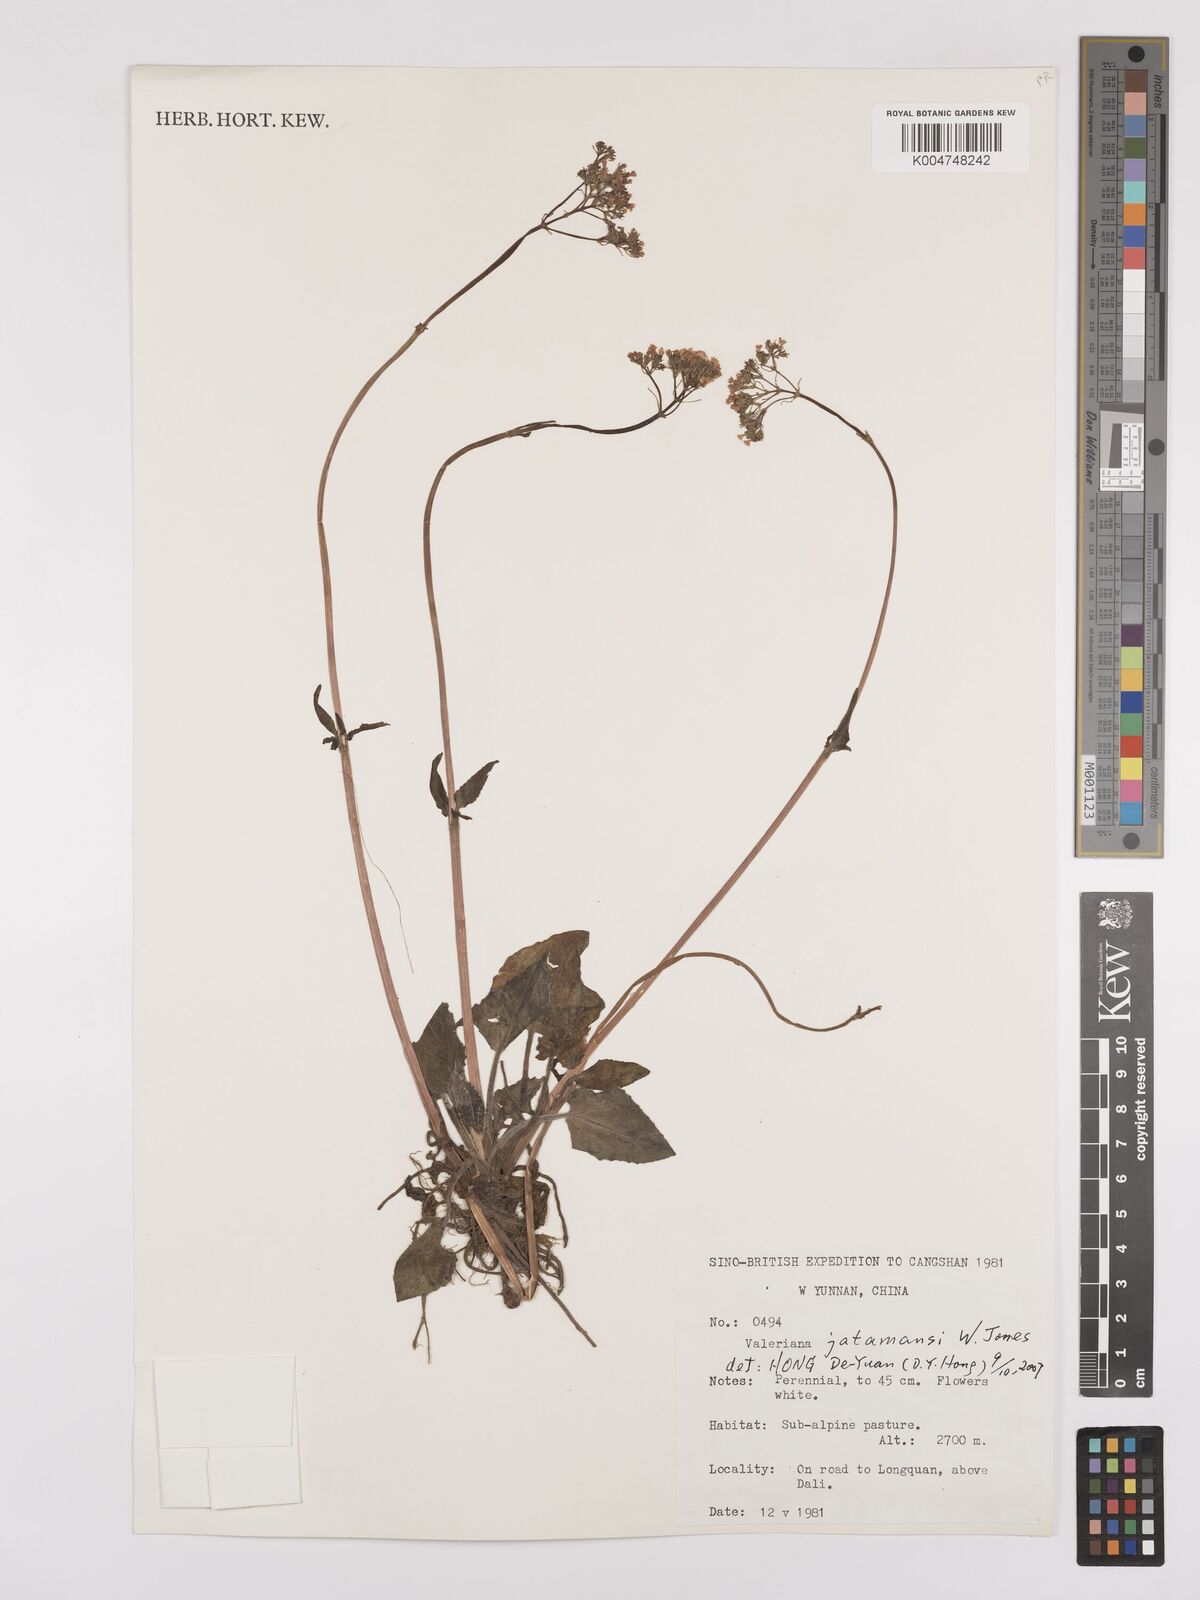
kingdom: Plantae
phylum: Tracheophyta
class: Magnoliopsida
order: Dipsacales
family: Caprifoliaceae
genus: Valeriana
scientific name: Valeriana
